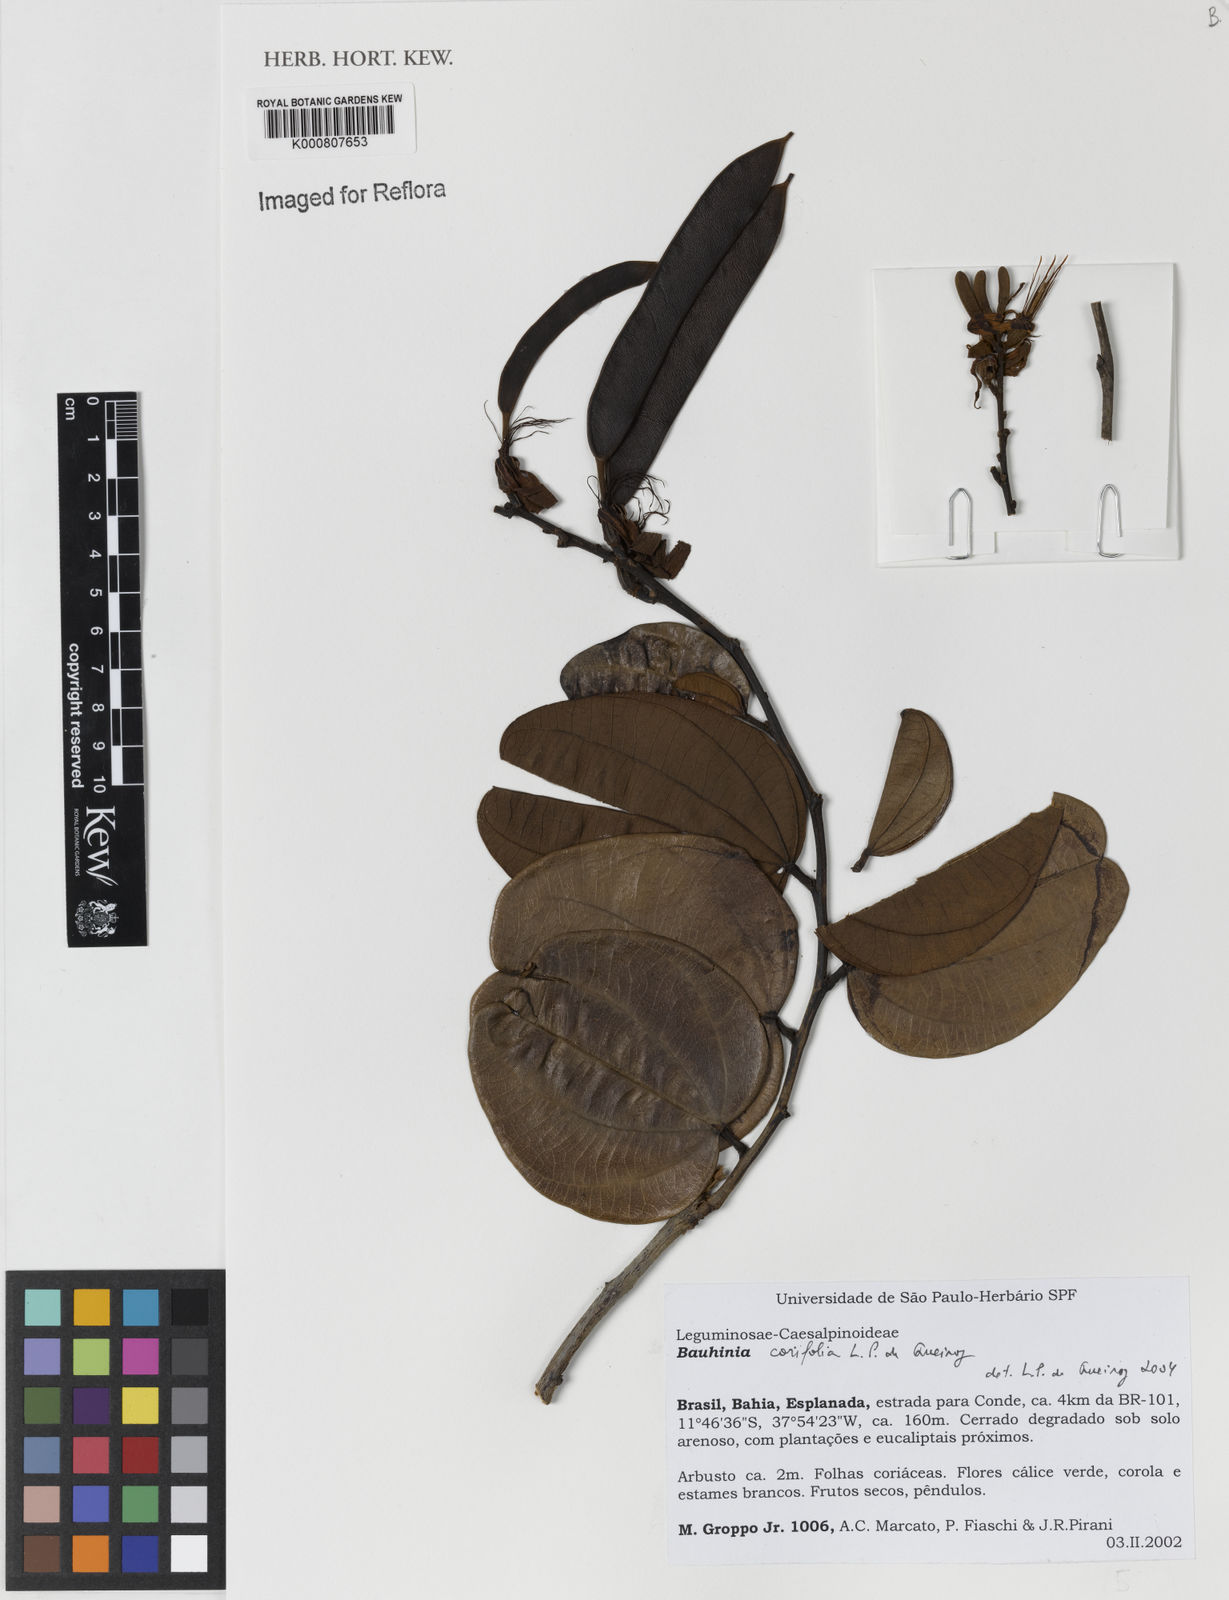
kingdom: Plantae
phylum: Tracheophyta
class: Magnoliopsida
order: Fabales
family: Fabaceae
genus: Bauhinia
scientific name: Bauhinia
